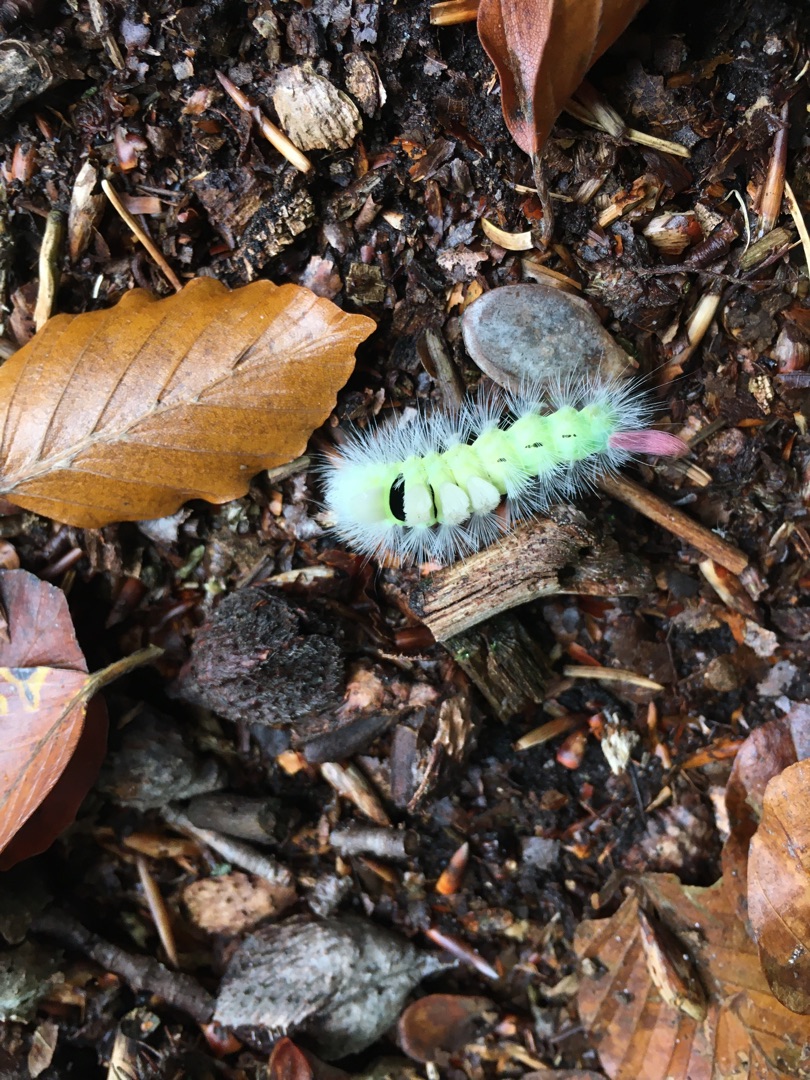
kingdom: Animalia
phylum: Arthropoda
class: Insecta
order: Lepidoptera
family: Erebidae
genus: Calliteara
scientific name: Calliteara pudibunda
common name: Bøgenonne
